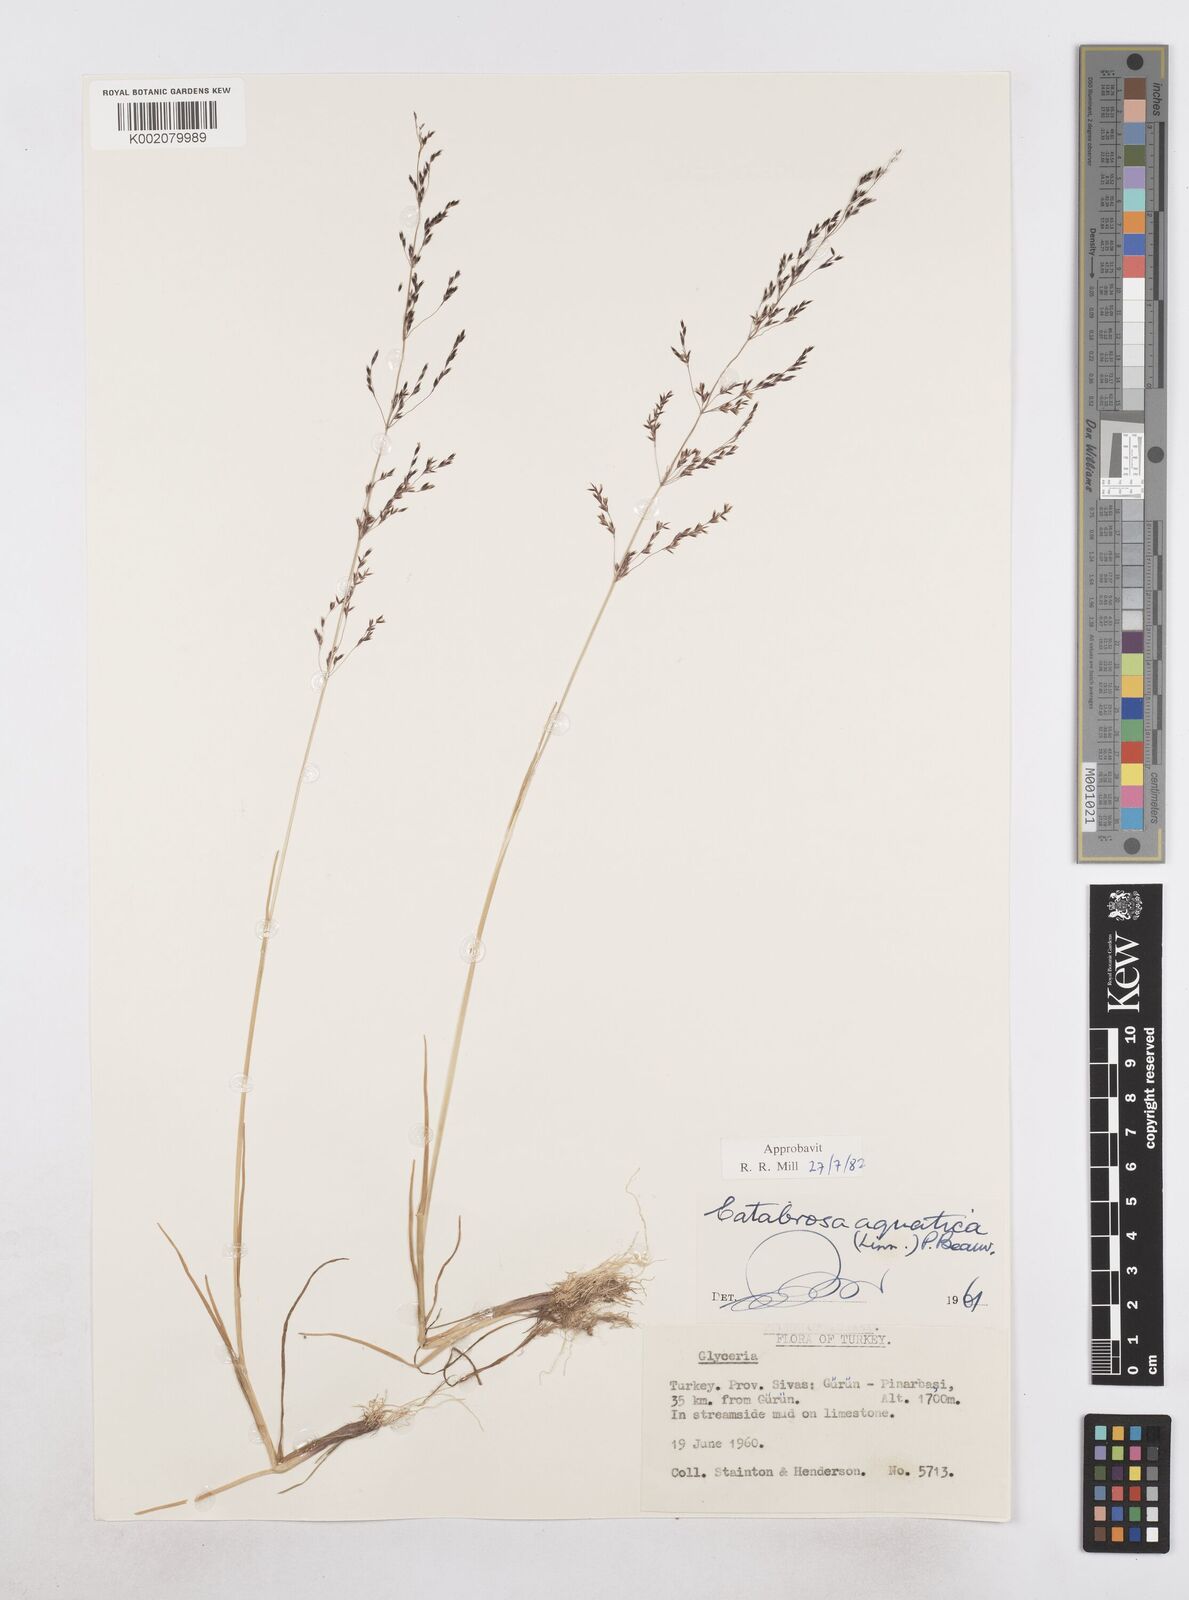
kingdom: Plantae
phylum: Tracheophyta
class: Liliopsida
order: Poales
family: Poaceae
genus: Catabrosa
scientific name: Catabrosa aquatica
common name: Whorl-grass
